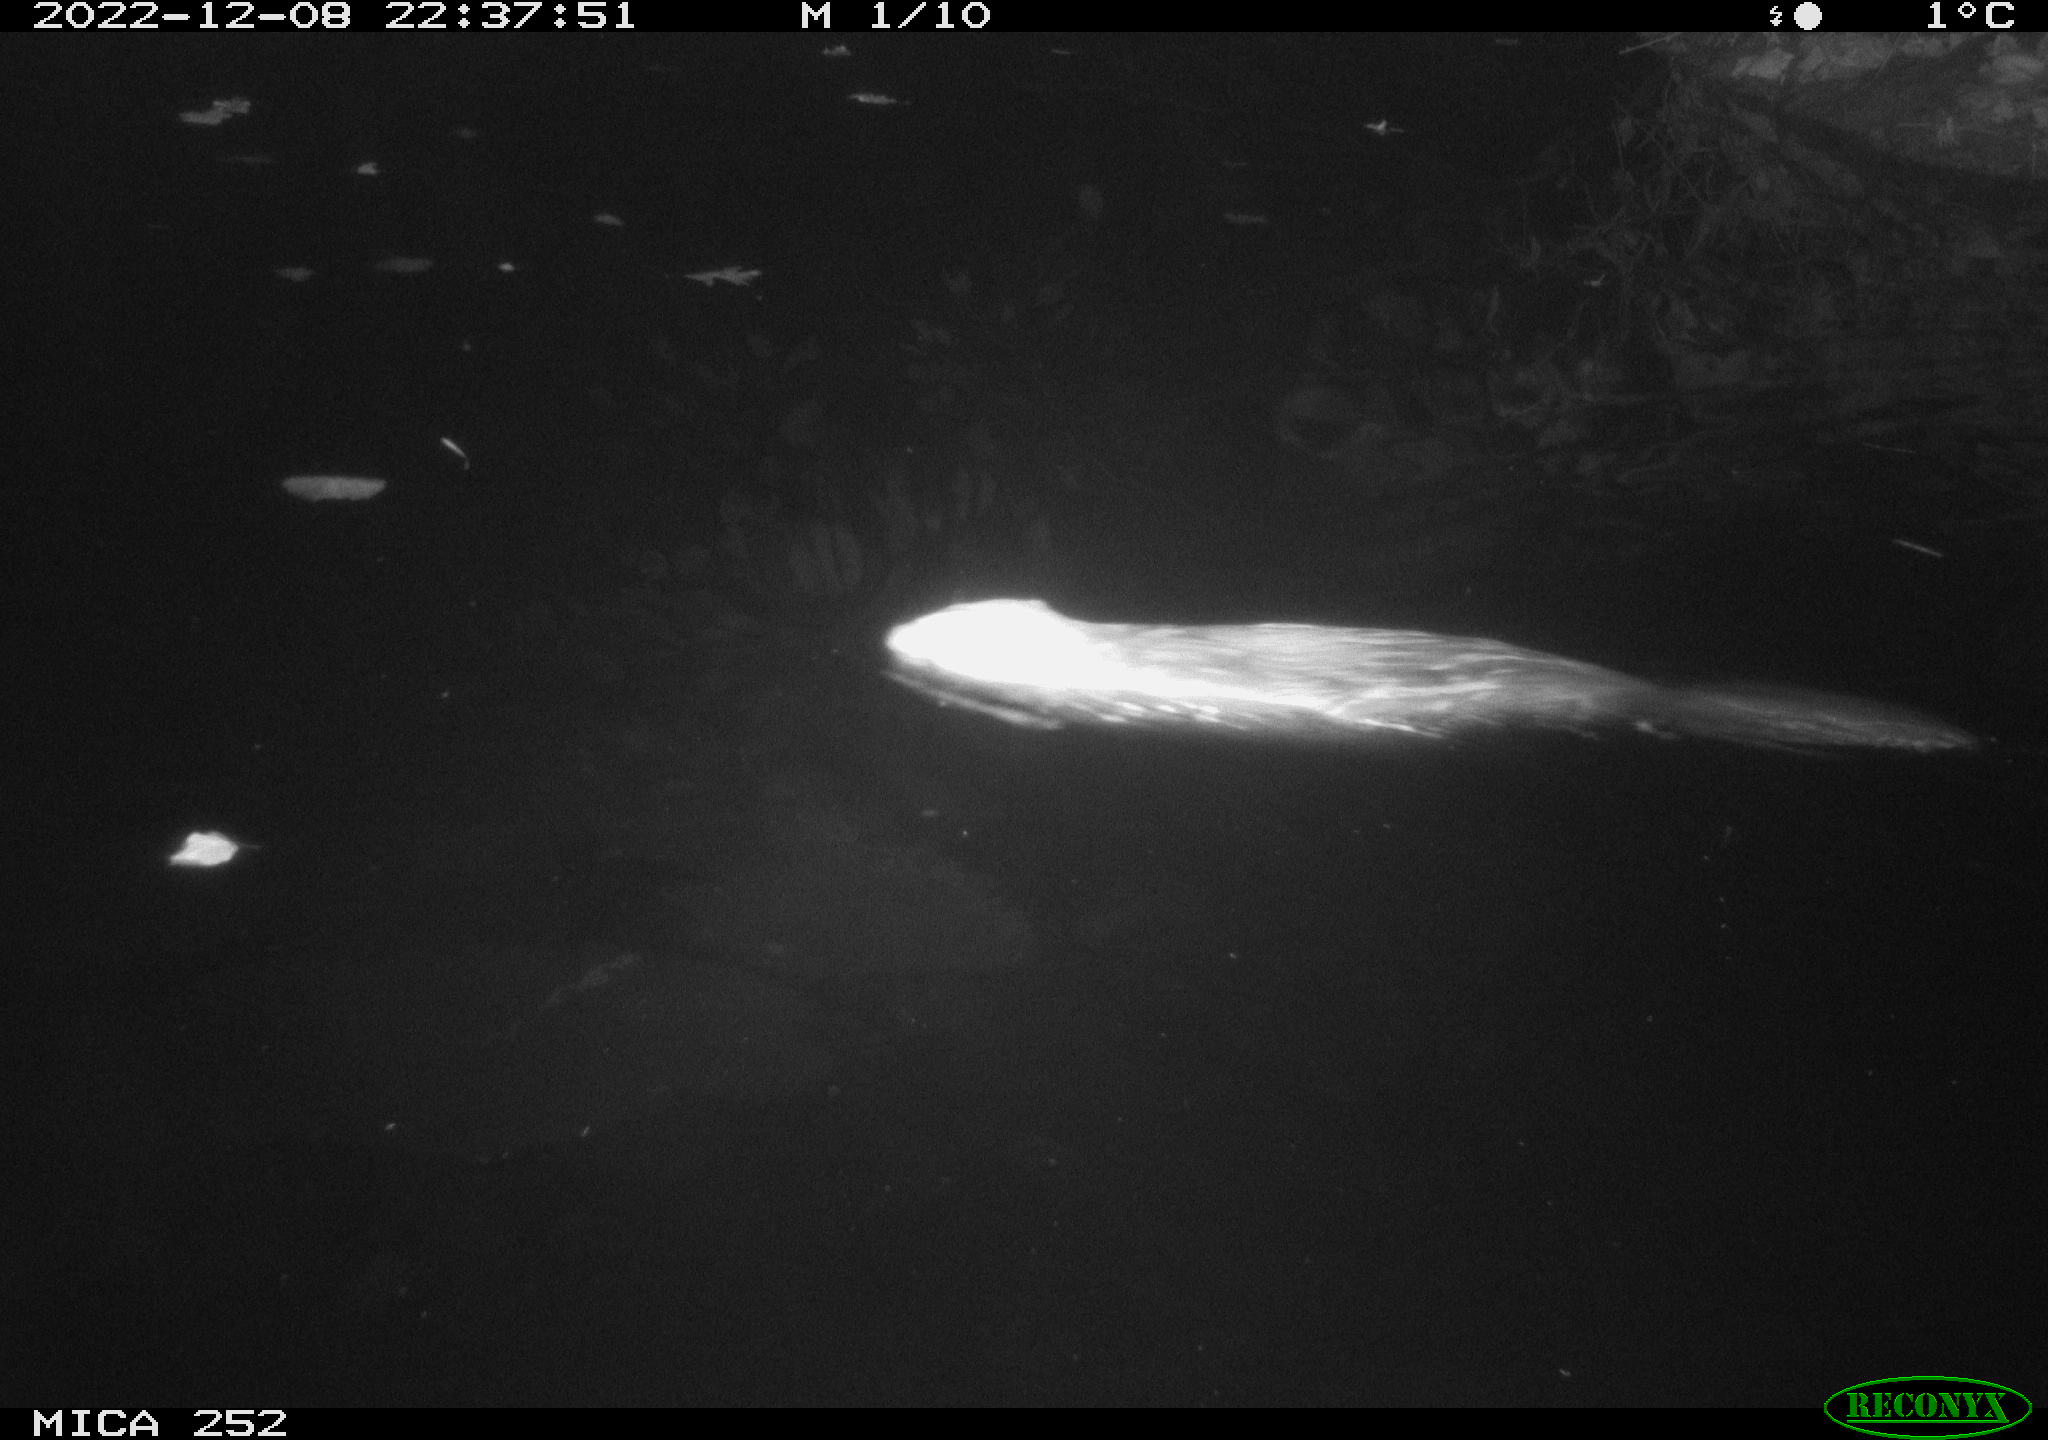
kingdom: Animalia
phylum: Chordata
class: Mammalia
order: Rodentia
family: Castoridae
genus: Castor
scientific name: Castor fiber
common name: Eurasian beaver
